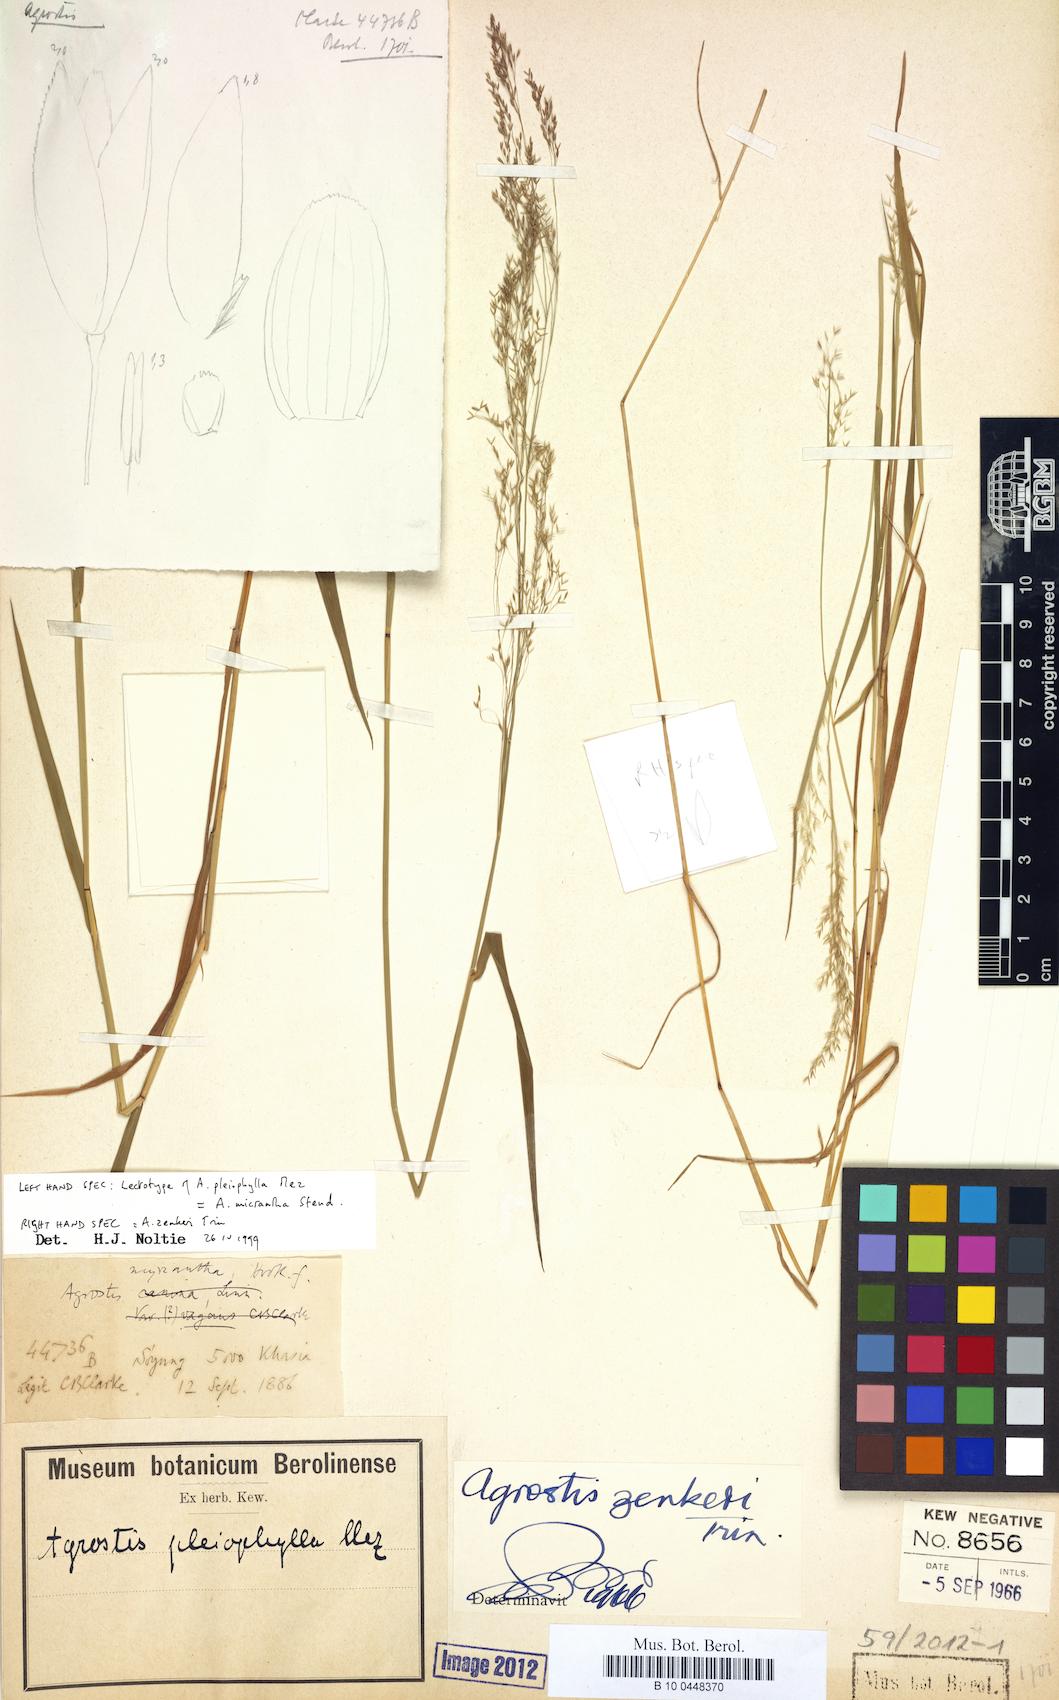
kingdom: Plantae
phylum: Tracheophyta
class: Liliopsida
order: Poales
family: Poaceae
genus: Agrostis
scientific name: Agrostis pleiophylla
